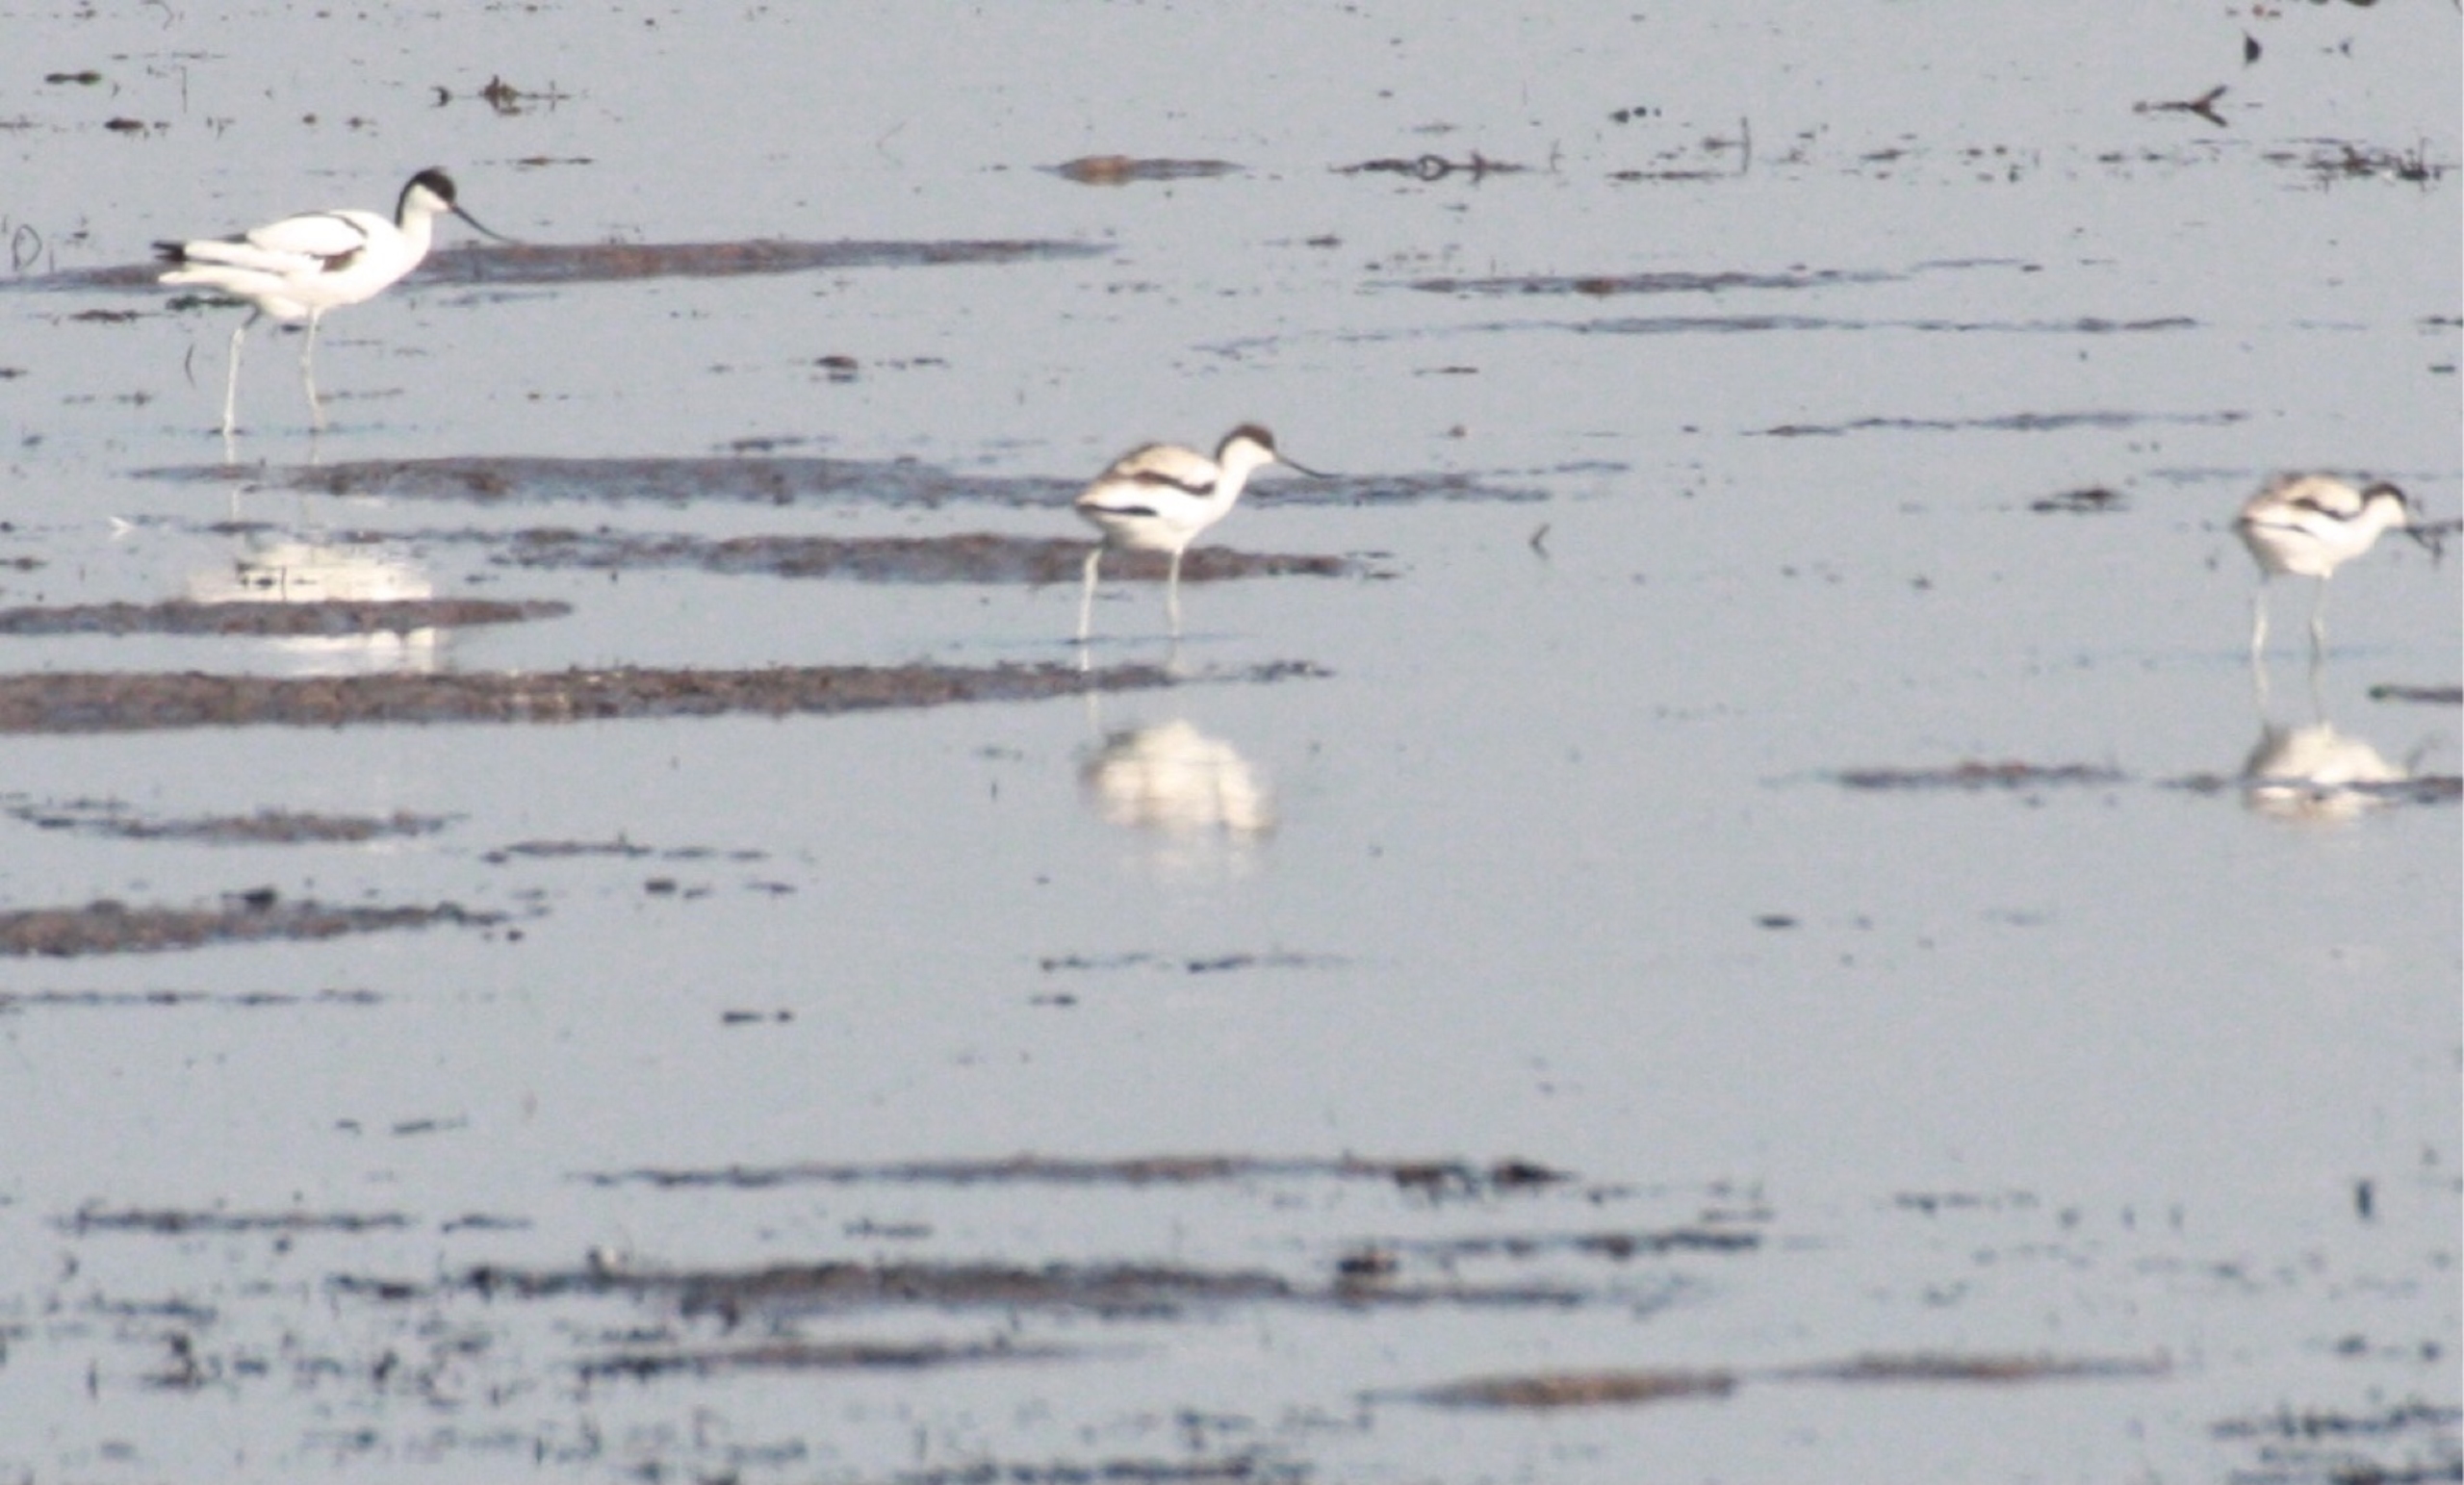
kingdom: Animalia
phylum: Chordata
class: Aves
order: Charadriiformes
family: Recurvirostridae
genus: Recurvirostra
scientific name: Recurvirostra avosetta
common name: Klyde
